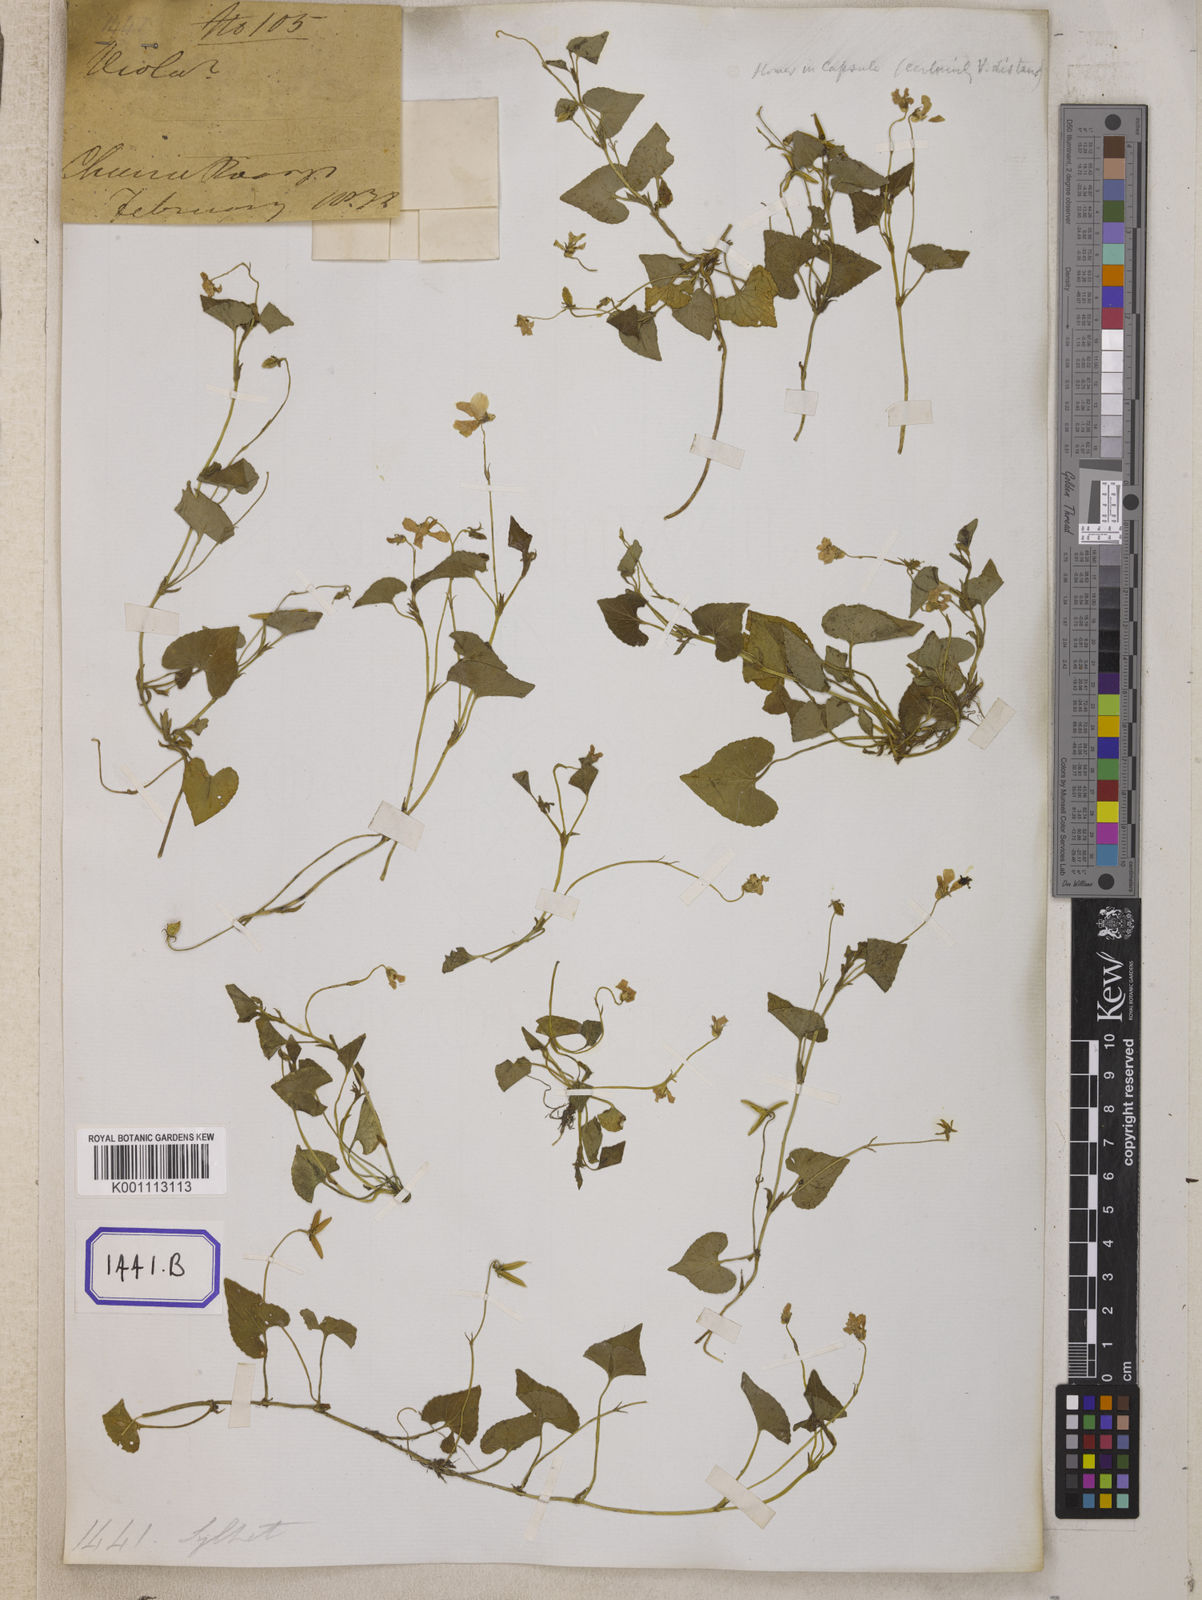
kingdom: Plantae
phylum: Tracheophyta
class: Magnoliopsida
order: Malpighiales
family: Violaceae
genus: Viola
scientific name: Viola
